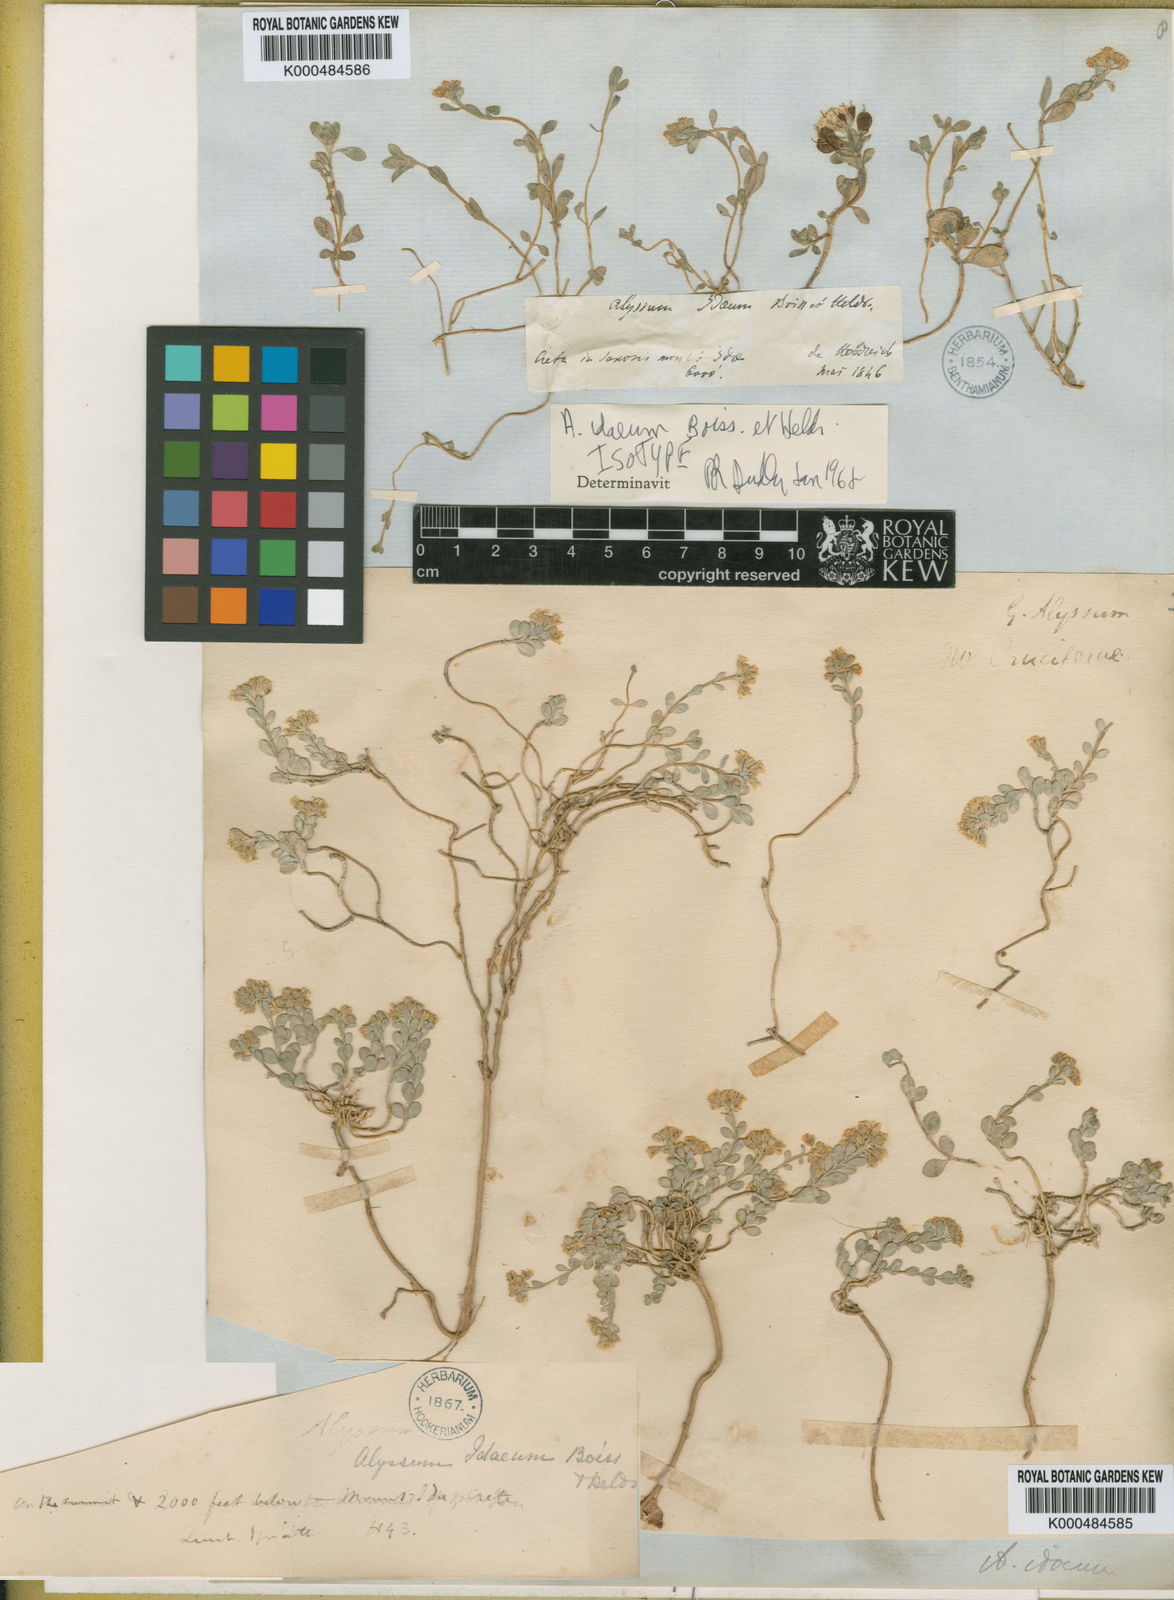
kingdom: Plantae
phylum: Tracheophyta
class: Magnoliopsida
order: Brassicales
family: Brassicaceae
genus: Alyssum
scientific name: Alyssum idaeum
